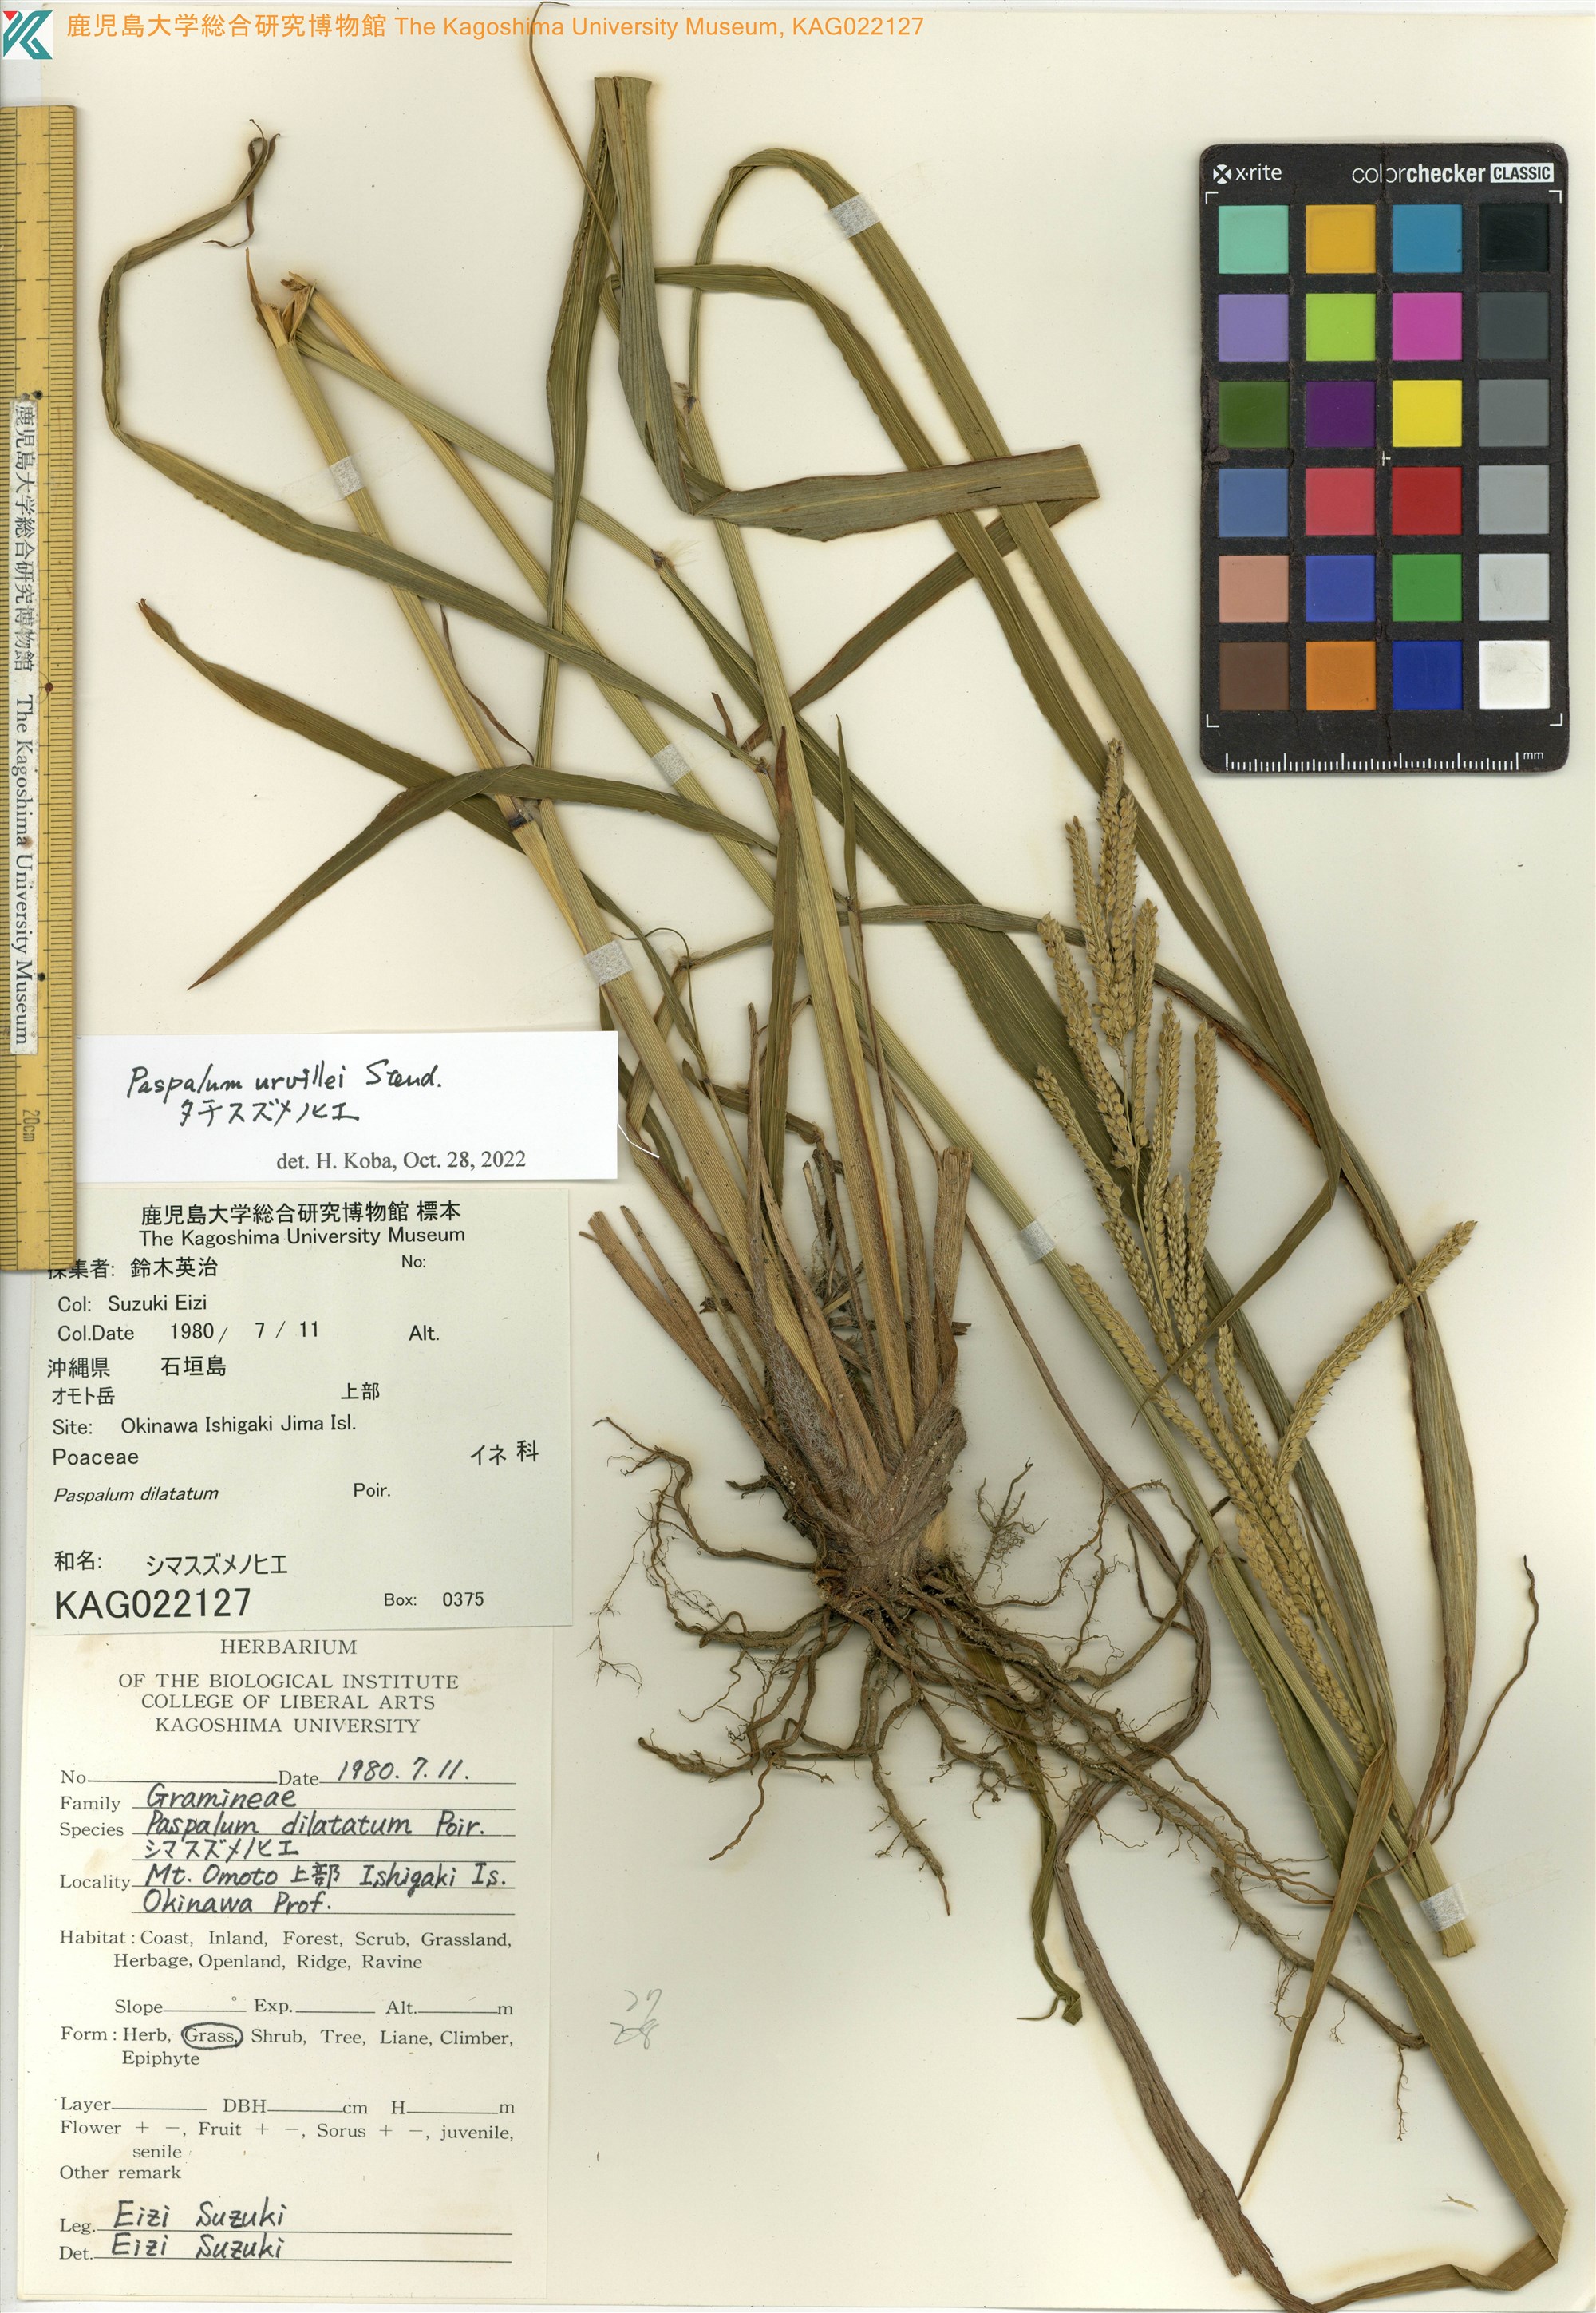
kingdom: Plantae
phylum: Tracheophyta
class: Liliopsida
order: Poales
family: Poaceae
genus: Paspalum
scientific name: Paspalum dilatatum
